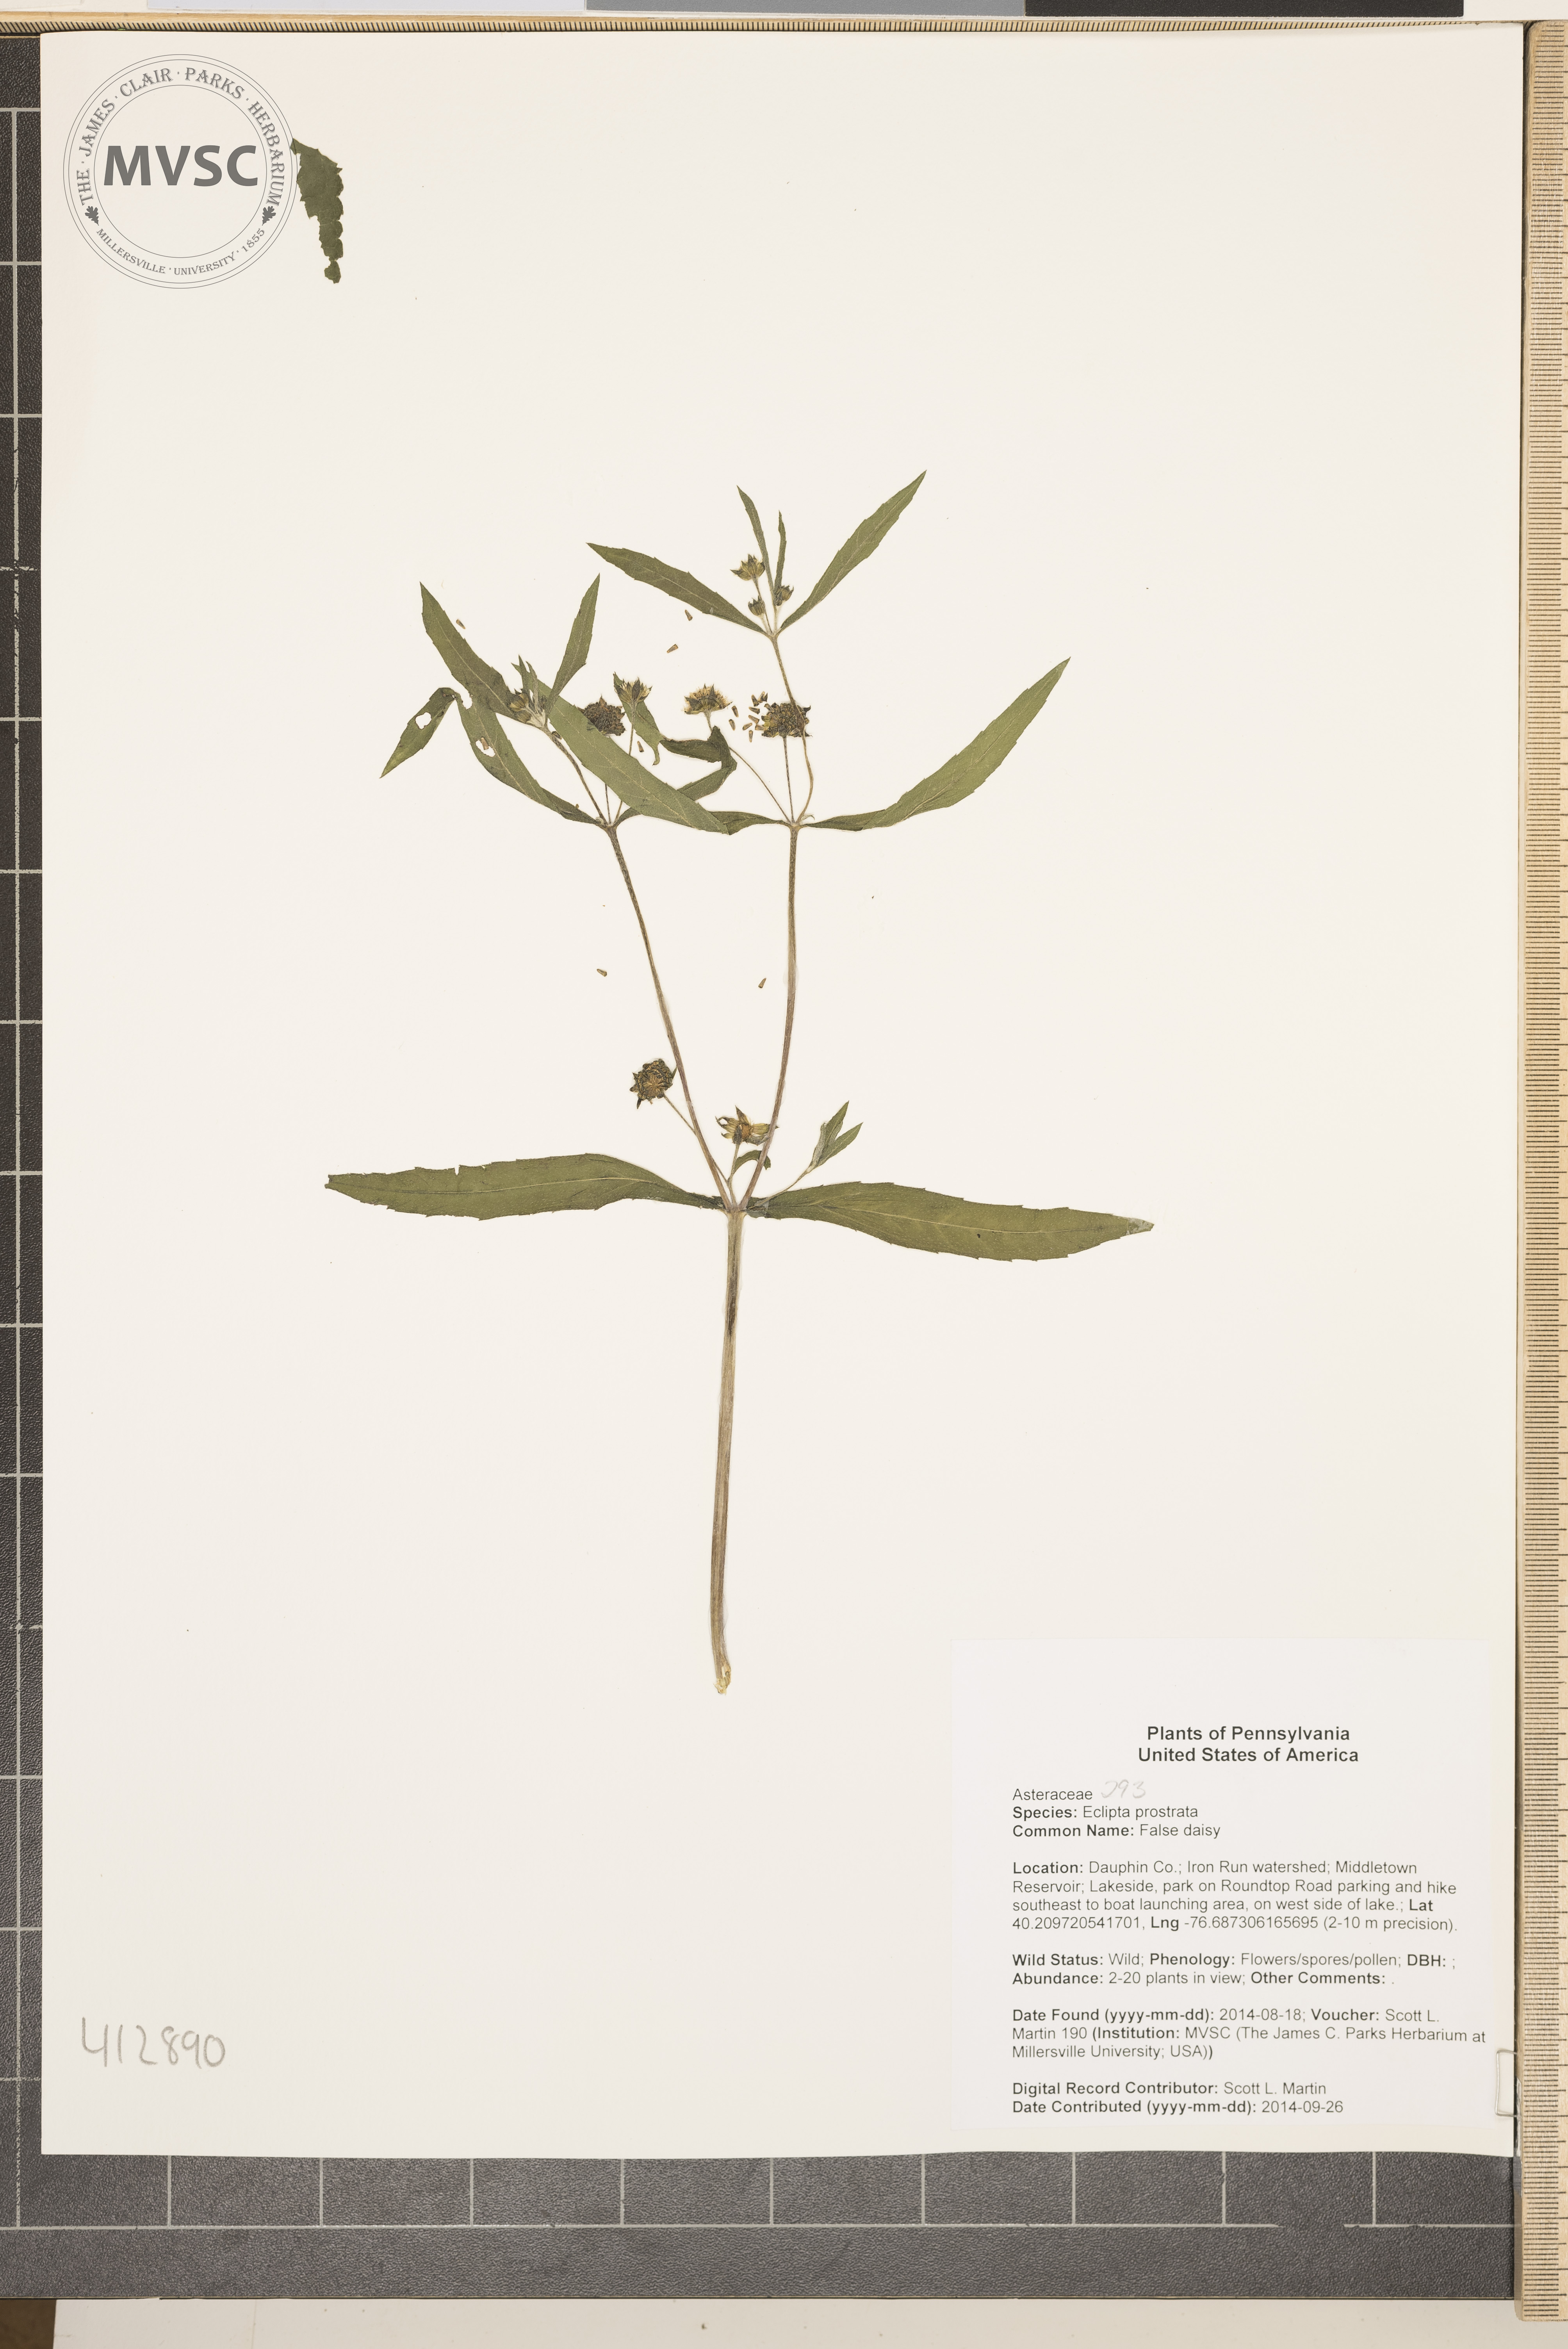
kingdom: Plantae
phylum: Tracheophyta
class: Magnoliopsida
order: Asterales
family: Asteraceae
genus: Eclipta
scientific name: Eclipta prostrata
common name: False daisy
